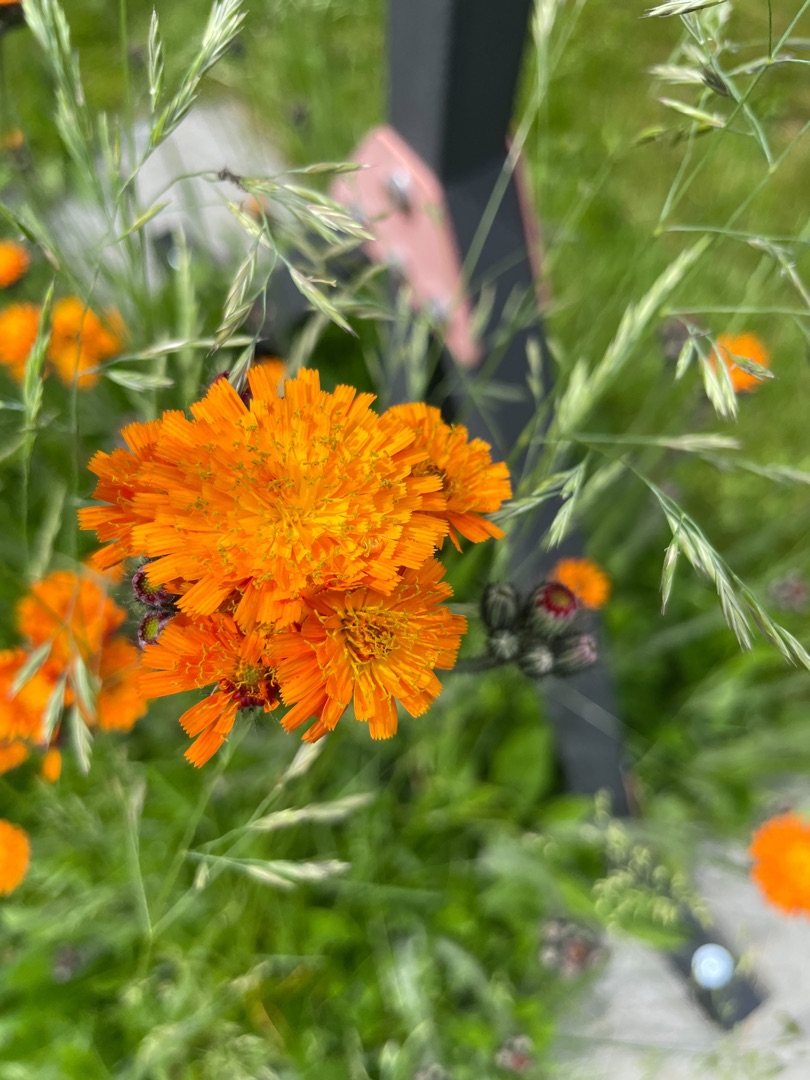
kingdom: Plantae
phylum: Tracheophyta
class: Magnoliopsida
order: Asterales
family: Asteraceae
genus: Pilosella
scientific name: Pilosella aurantiaca
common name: Pomerans-høgeurt
